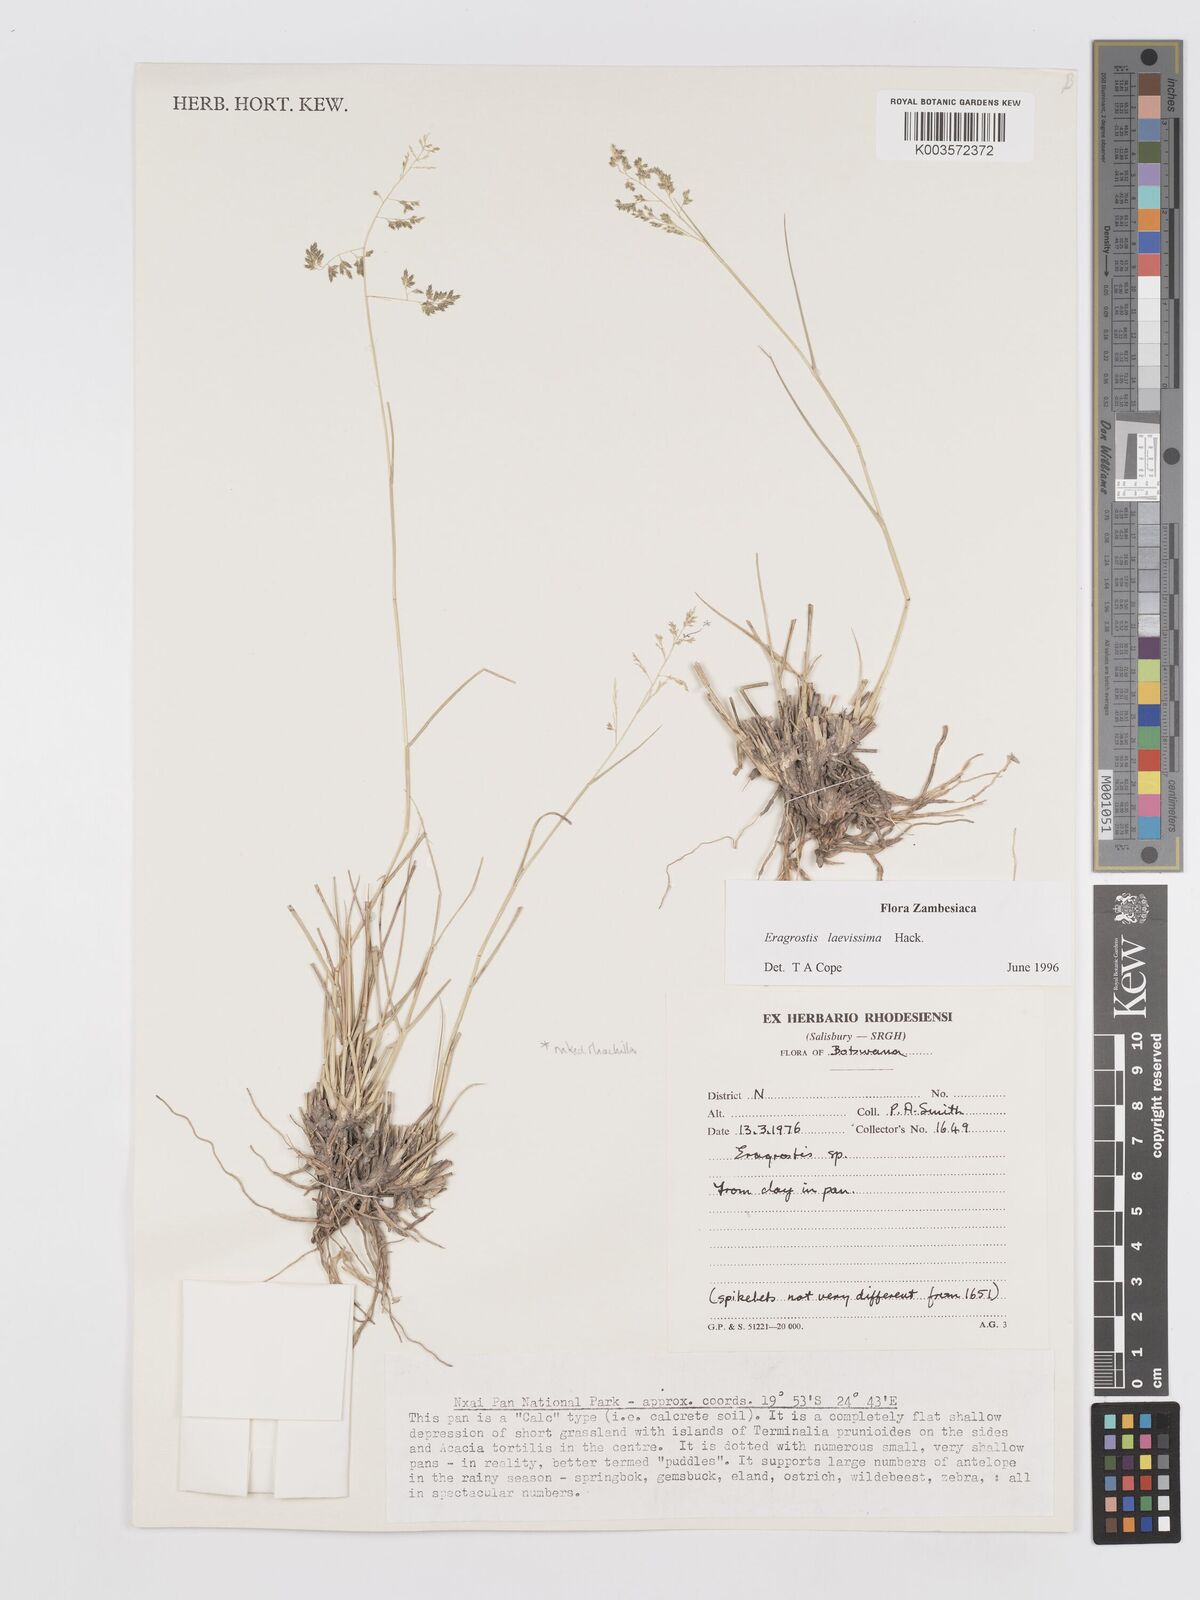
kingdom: Plantae
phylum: Tracheophyta
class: Liliopsida
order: Poales
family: Poaceae
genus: Eragrostis
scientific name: Eragrostis laevissima
